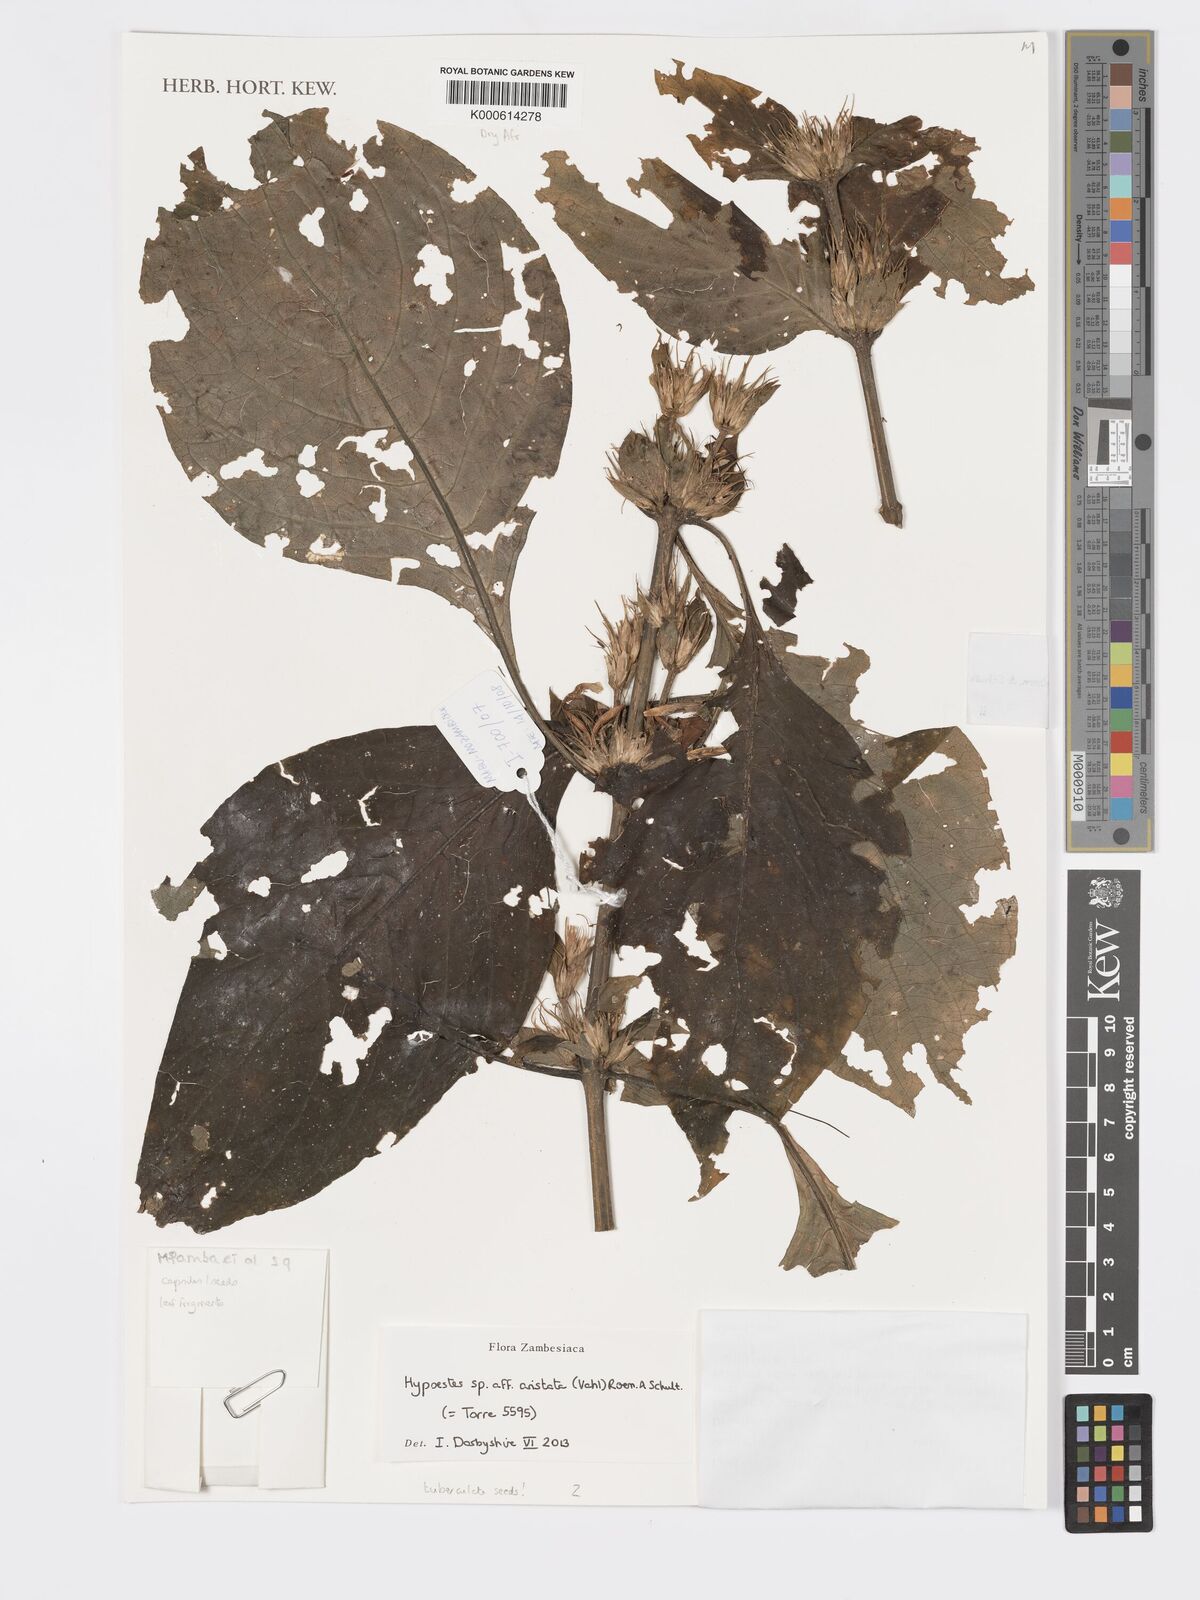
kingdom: Plantae
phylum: Tracheophyta
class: Magnoliopsida
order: Lamiales
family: Acanthaceae
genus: Hypoestes
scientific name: Hypoestes aristata
